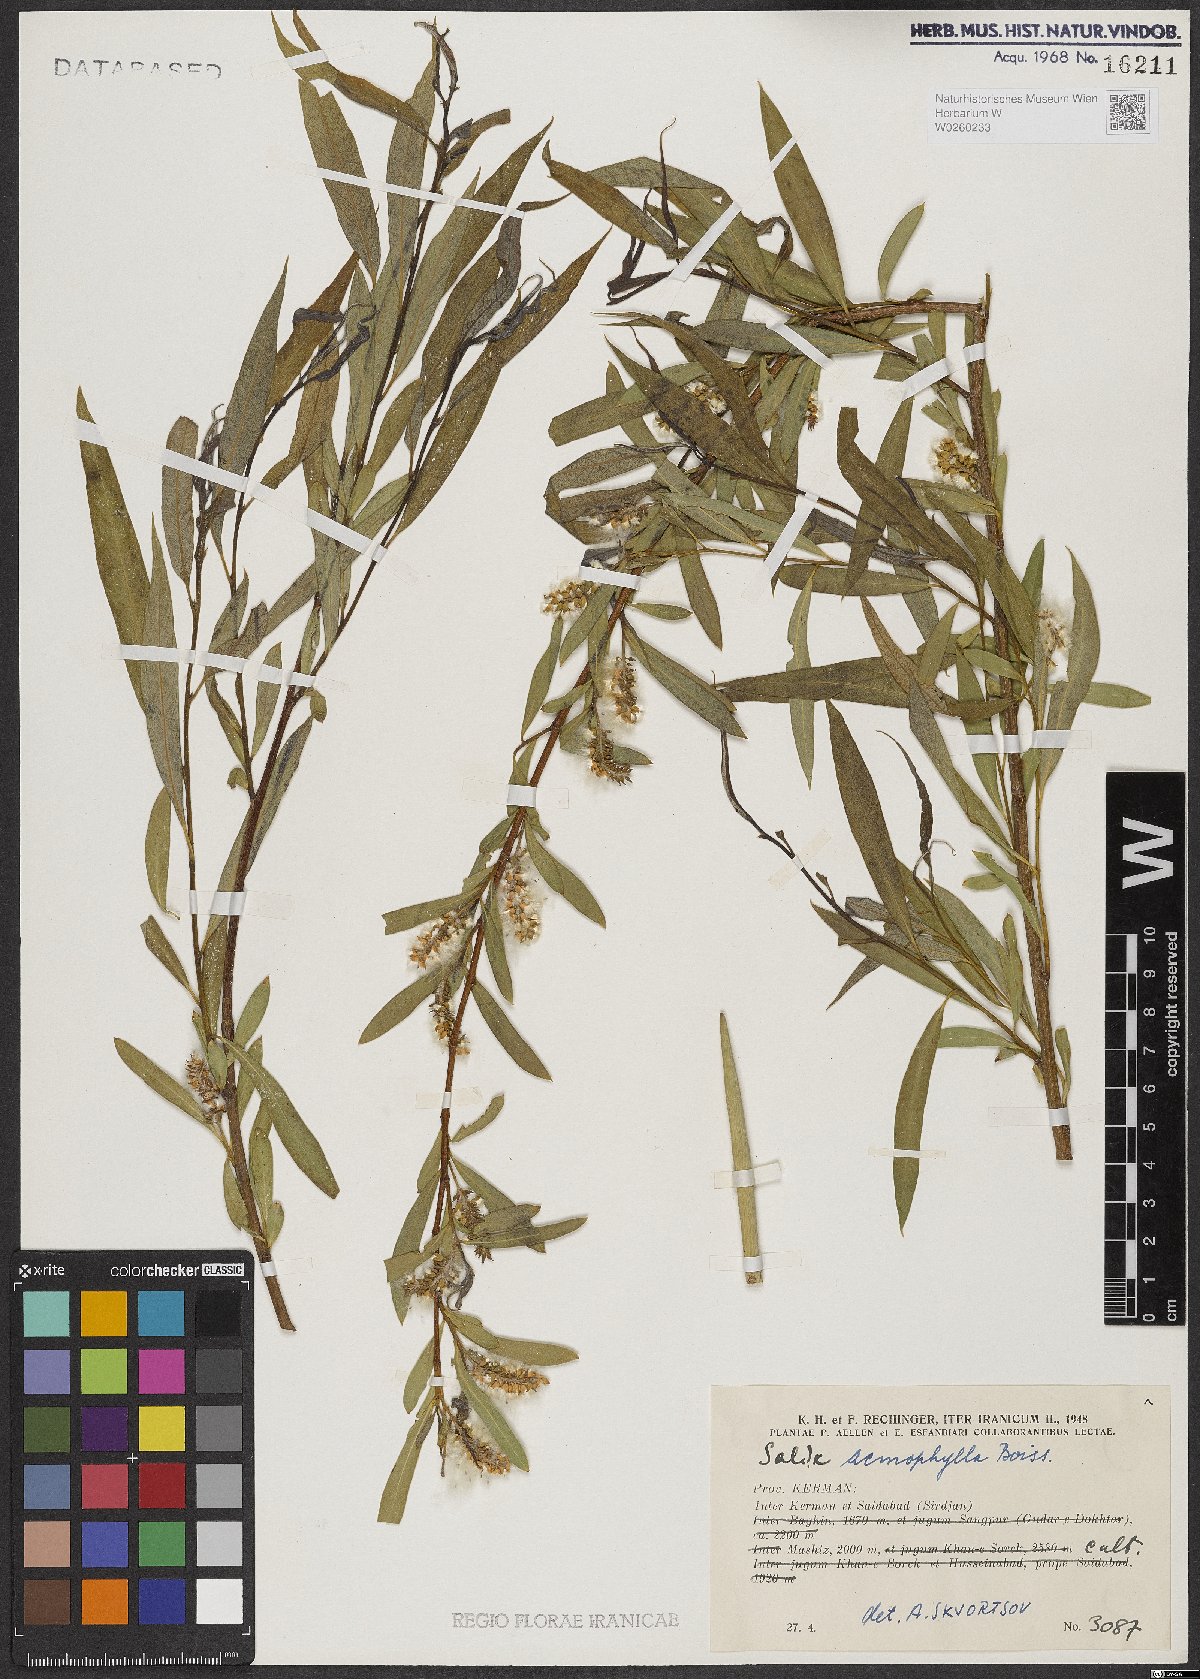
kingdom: Plantae
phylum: Tracheophyta
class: Magnoliopsida
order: Malpighiales
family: Salicaceae
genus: Salix
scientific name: Salix acmophylla
